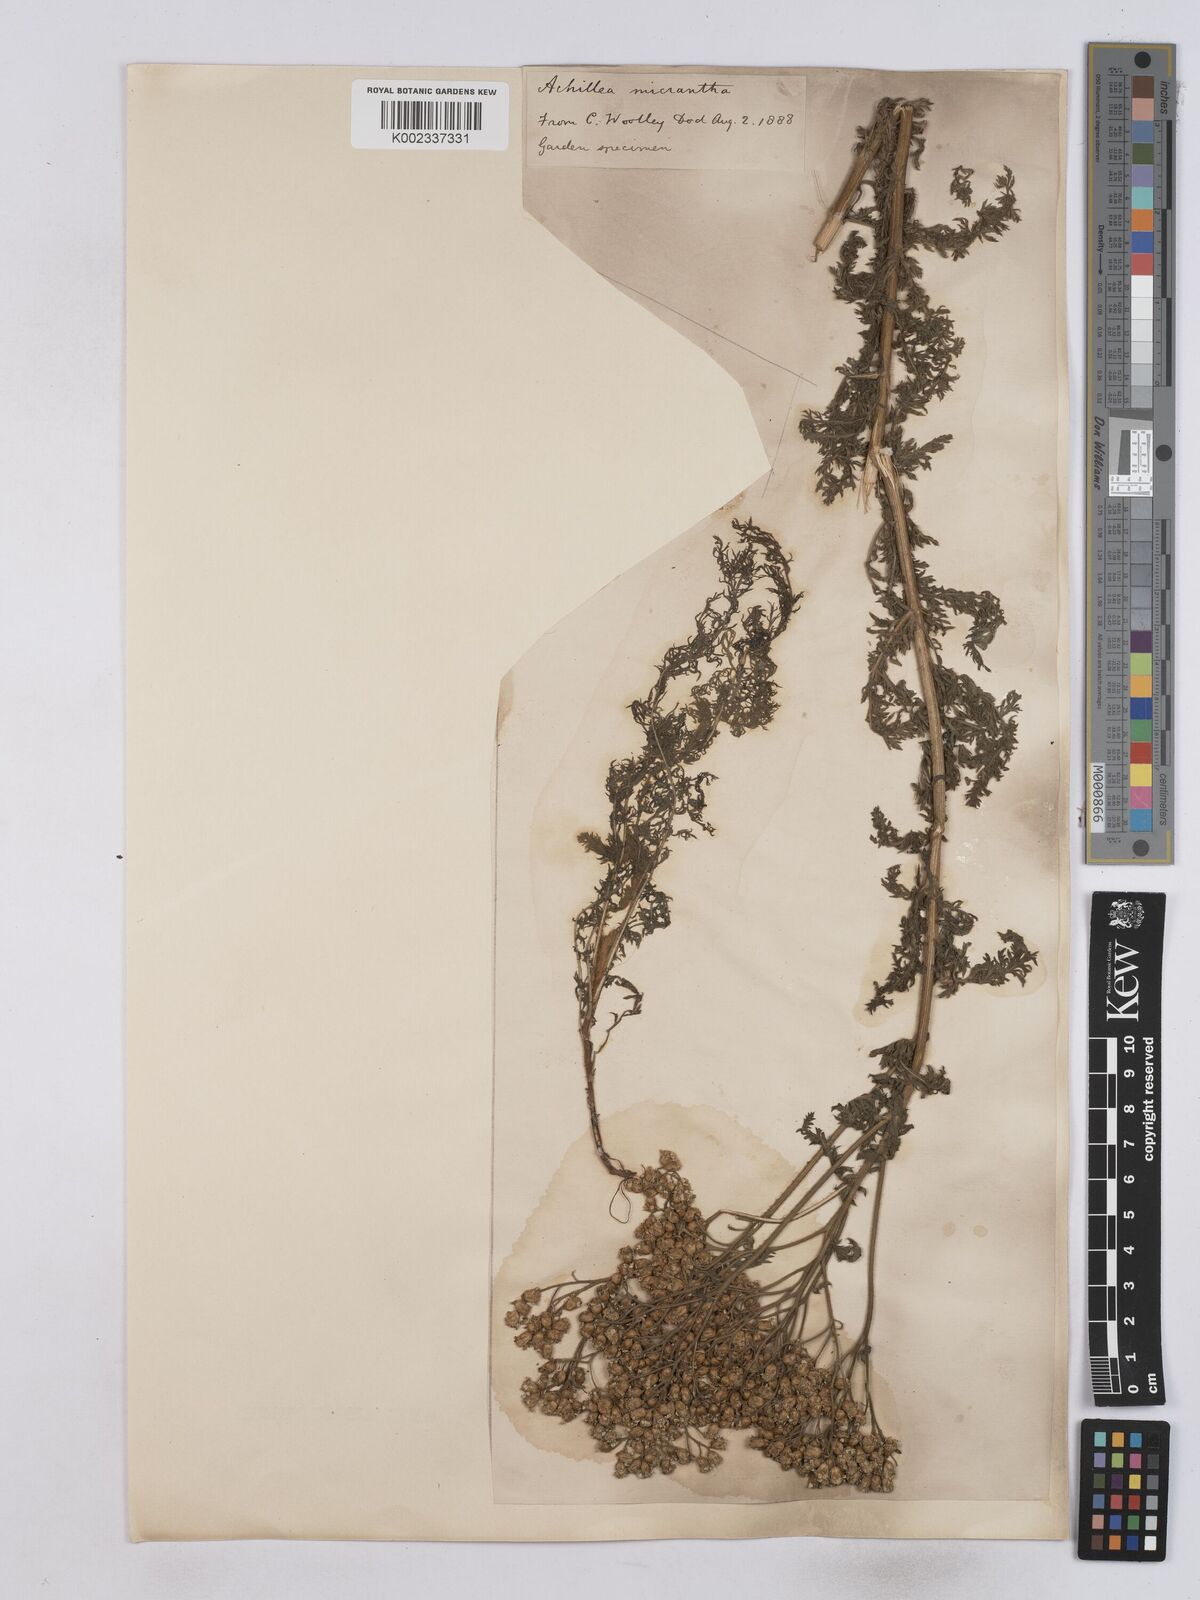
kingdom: Plantae
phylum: Tracheophyta
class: Magnoliopsida
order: Asterales
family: Asteraceae
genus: Achillea
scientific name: Achillea micrantha
